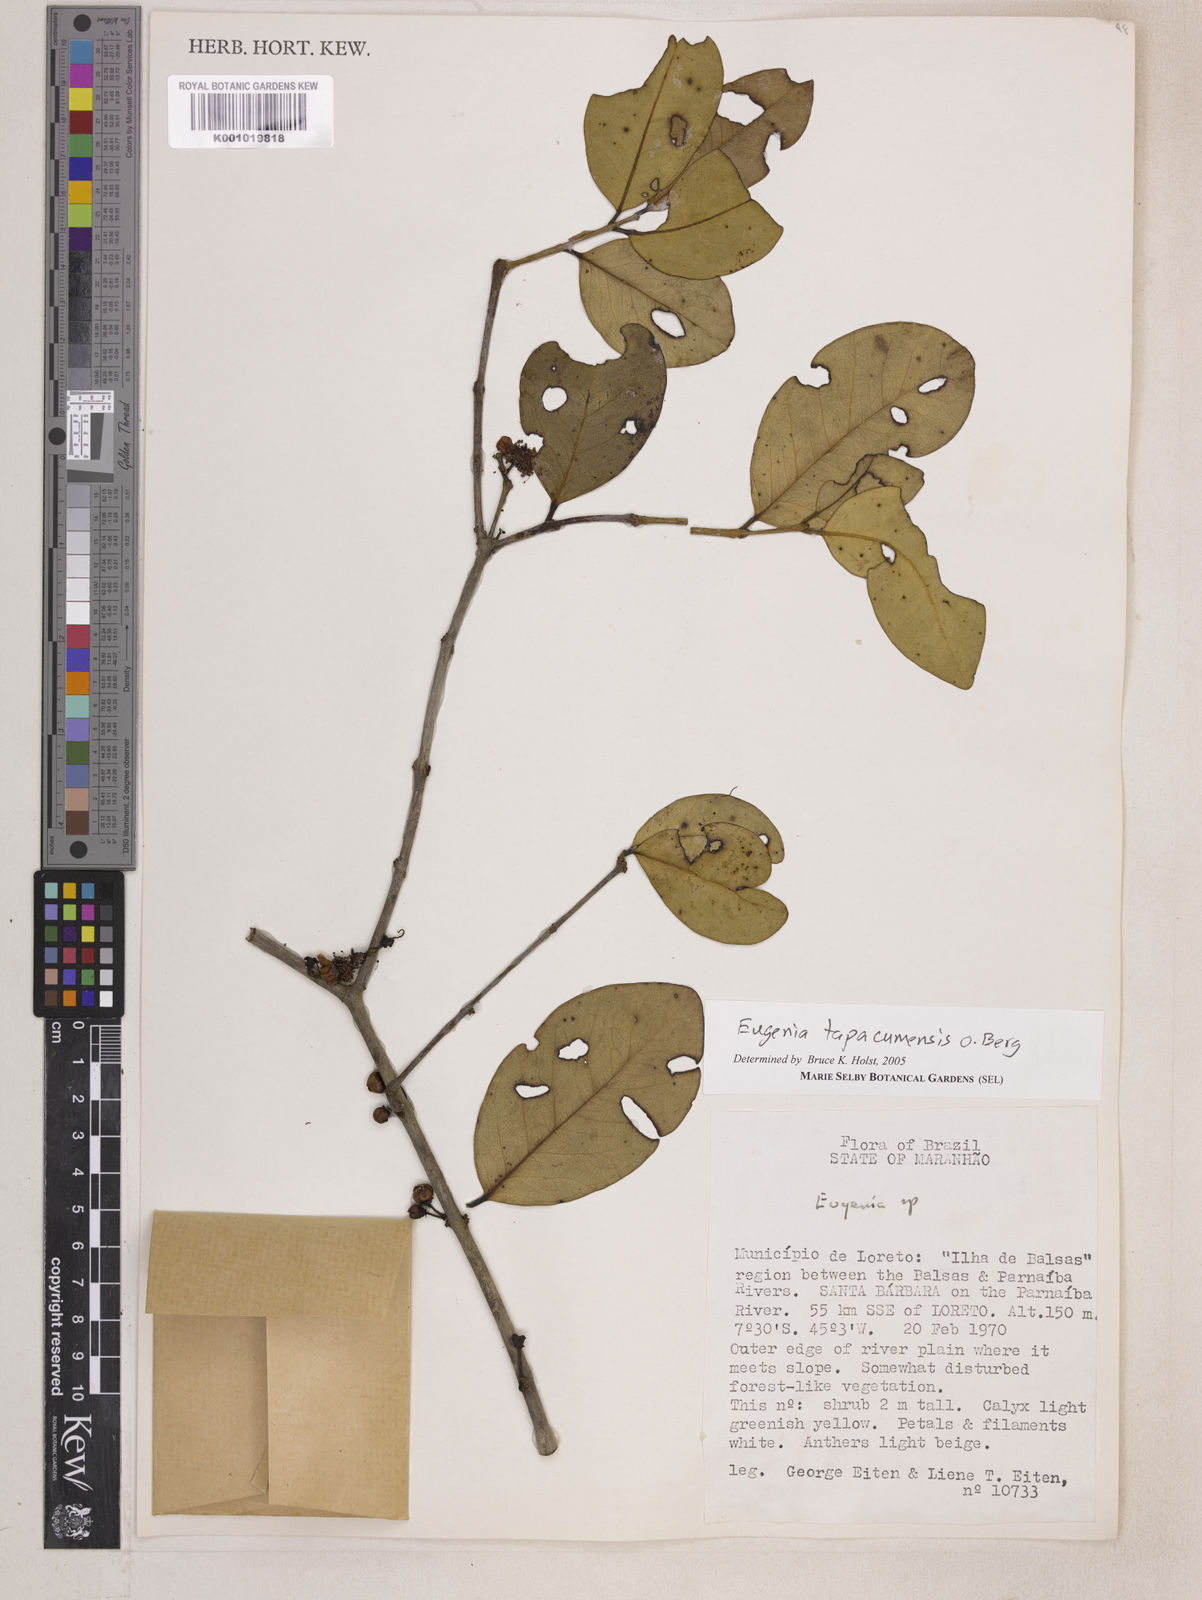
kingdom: Plantae
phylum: Tracheophyta
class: Magnoliopsida
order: Myrtales
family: Myrtaceae
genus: Eugenia
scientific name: Eugenia stictopetala
